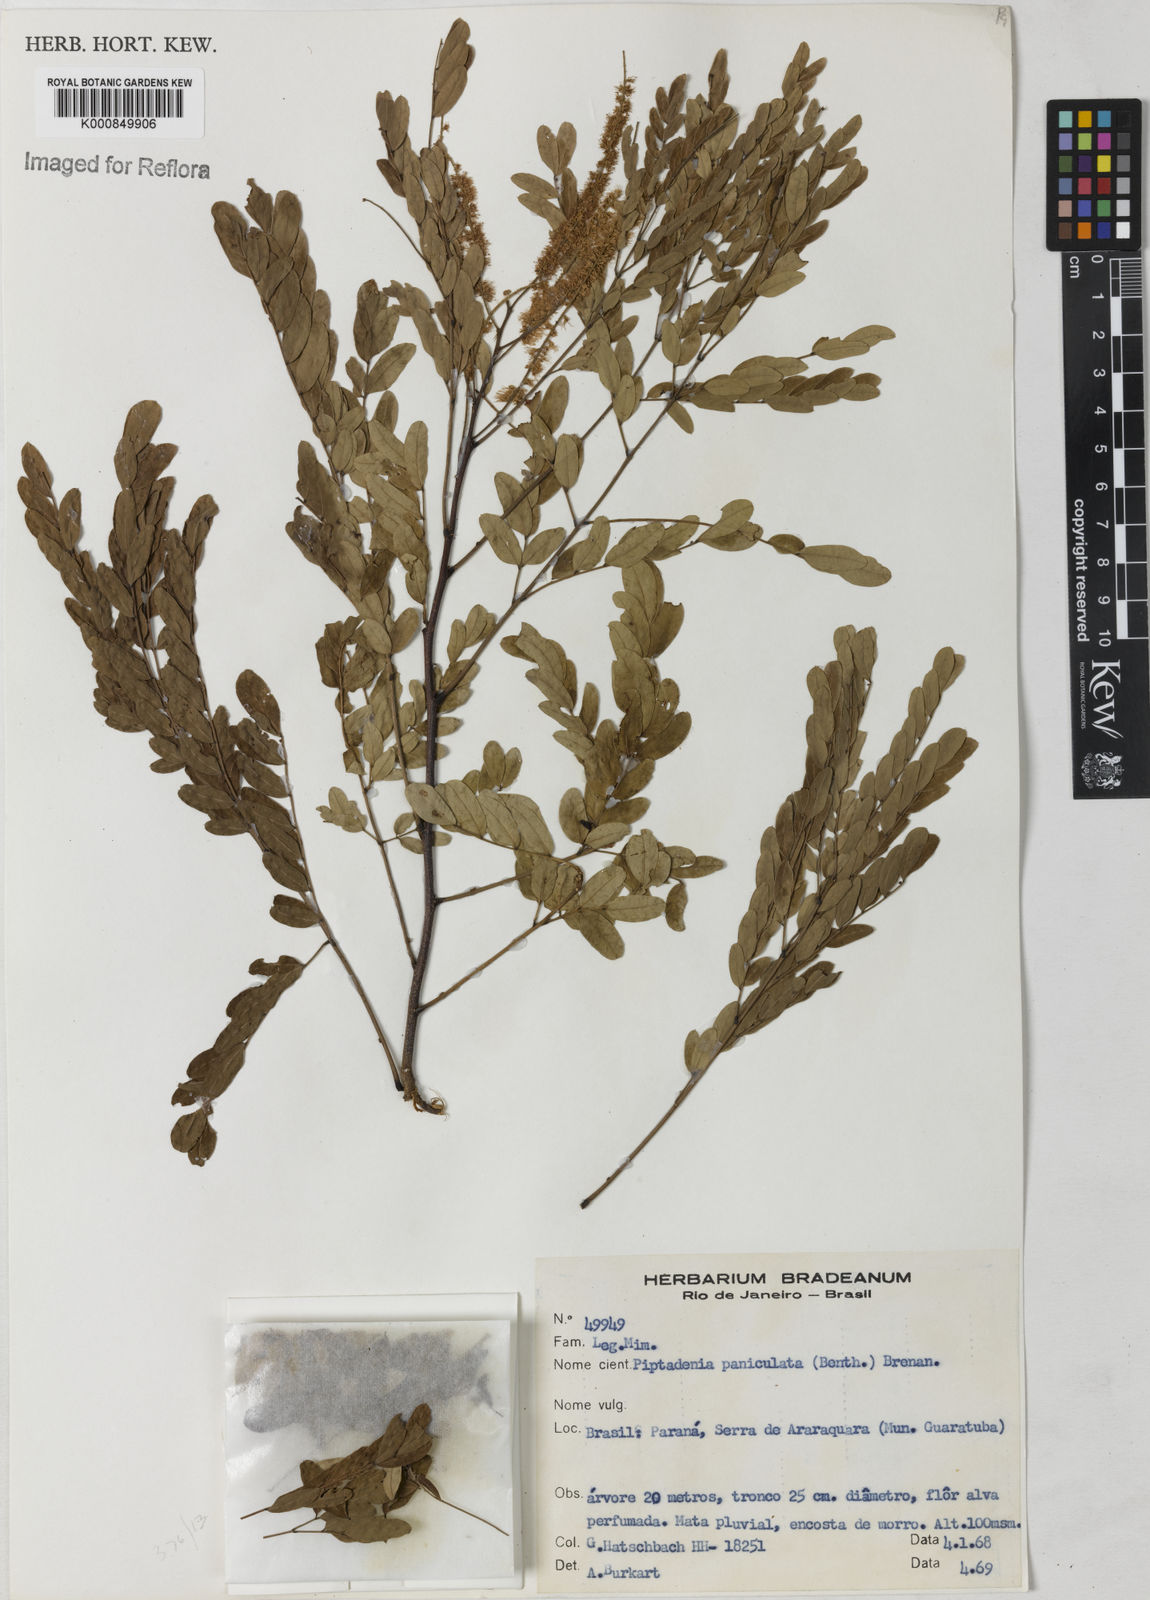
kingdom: Plantae
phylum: Tracheophyta
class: Magnoliopsida
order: Fabales
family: Fabaceae
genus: Piptadenia
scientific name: Piptadenia paniculata
